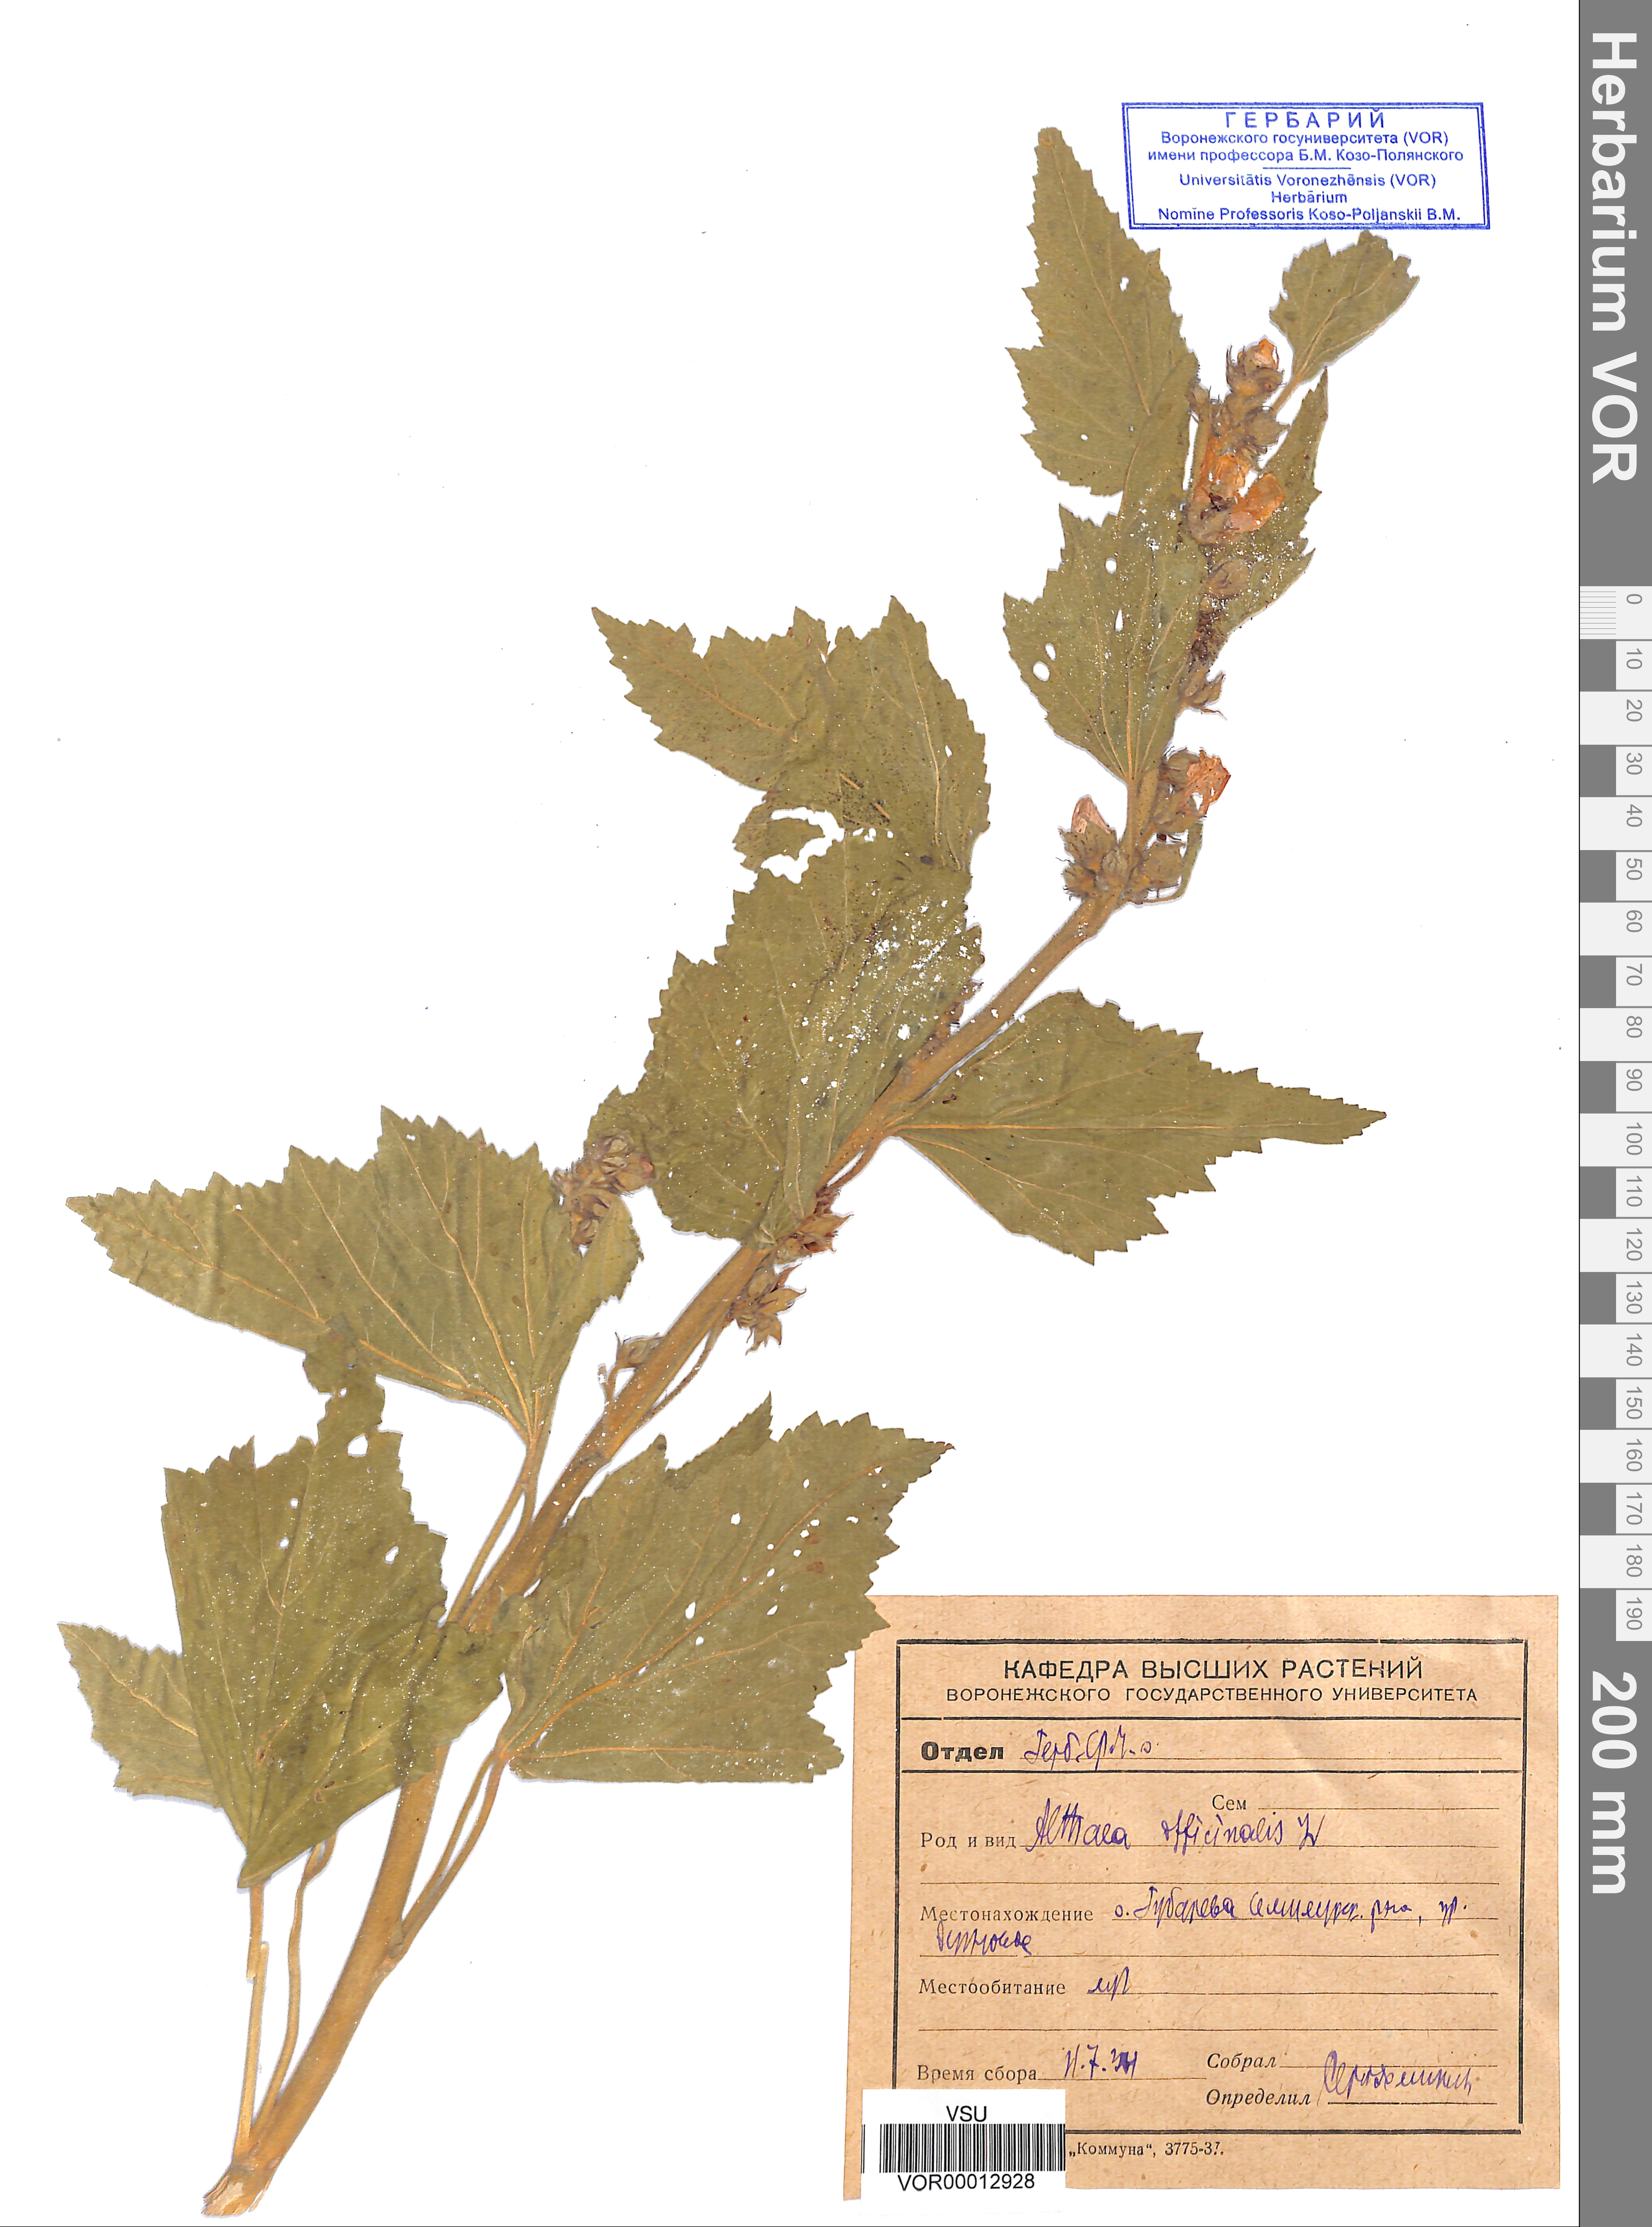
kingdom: Plantae
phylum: Tracheophyta
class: Magnoliopsida
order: Malvales
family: Malvaceae
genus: Althaea
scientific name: Althaea officinalis
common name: Marsh-mallow
